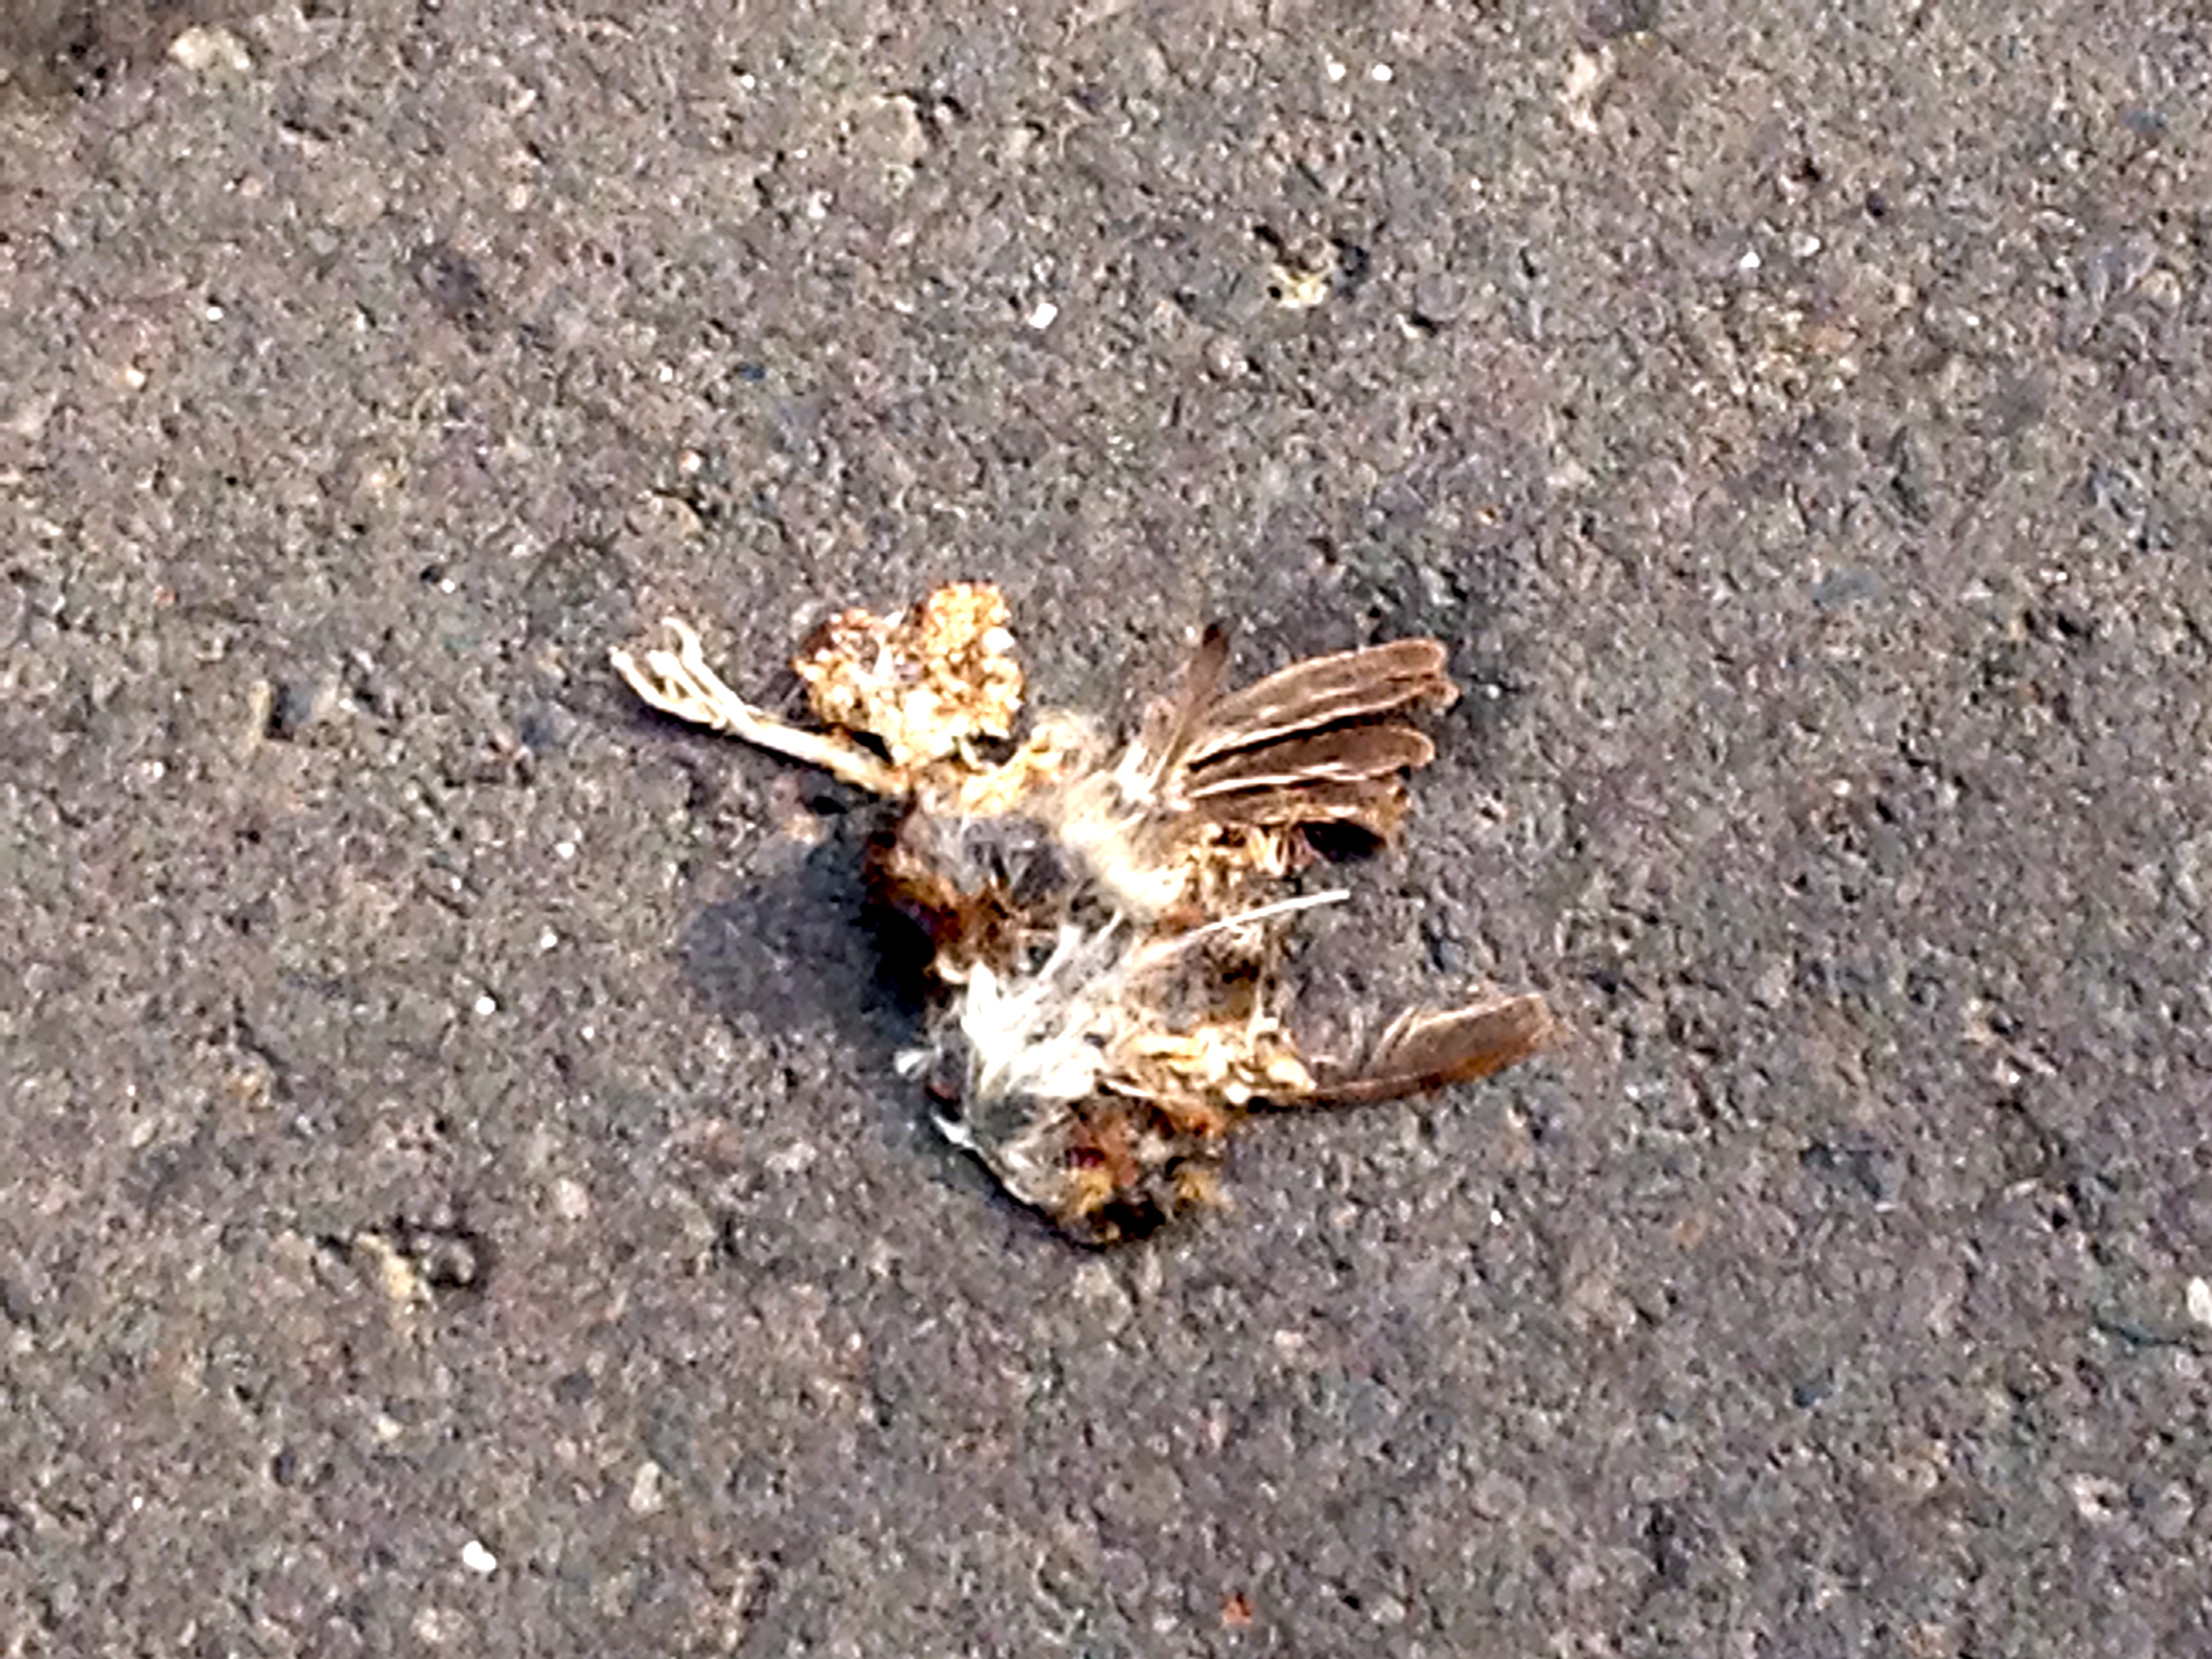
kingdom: Animalia
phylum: Chordata
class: Aves
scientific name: Aves
